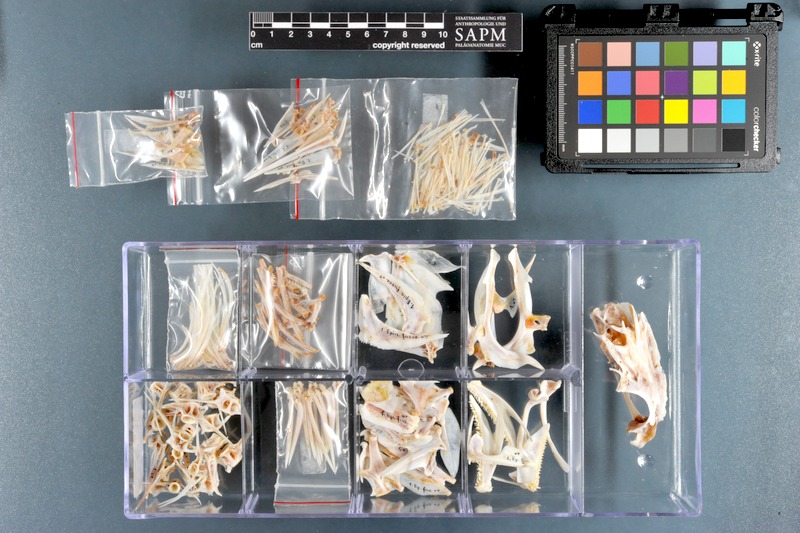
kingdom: Animalia
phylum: Chordata
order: Perciformes
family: Serranidae
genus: Epinephelus
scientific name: Epinephelus fuscoguttatus
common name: Brown-marbled grouper
